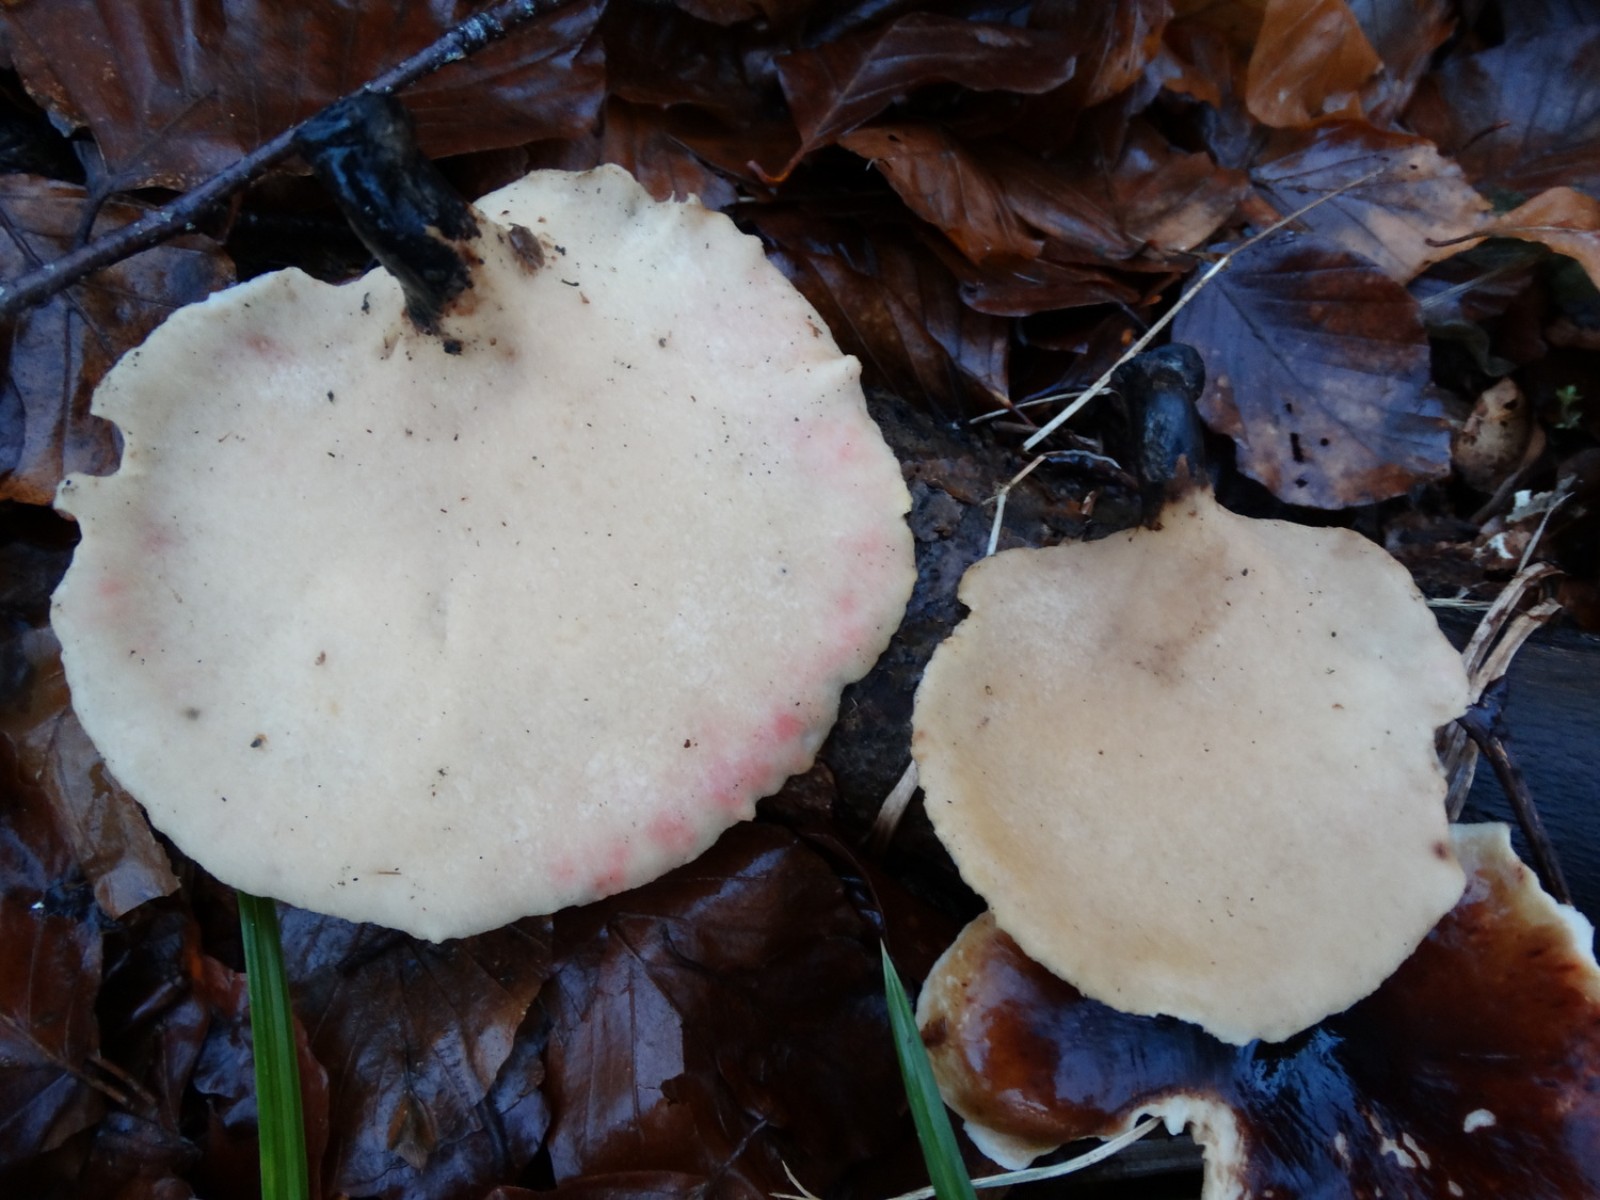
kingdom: Fungi
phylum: Basidiomycota
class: Agaricomycetes
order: Polyporales
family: Polyporaceae
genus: Picipes
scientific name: Picipes badius
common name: kastaniebrun stilkporesvamp
